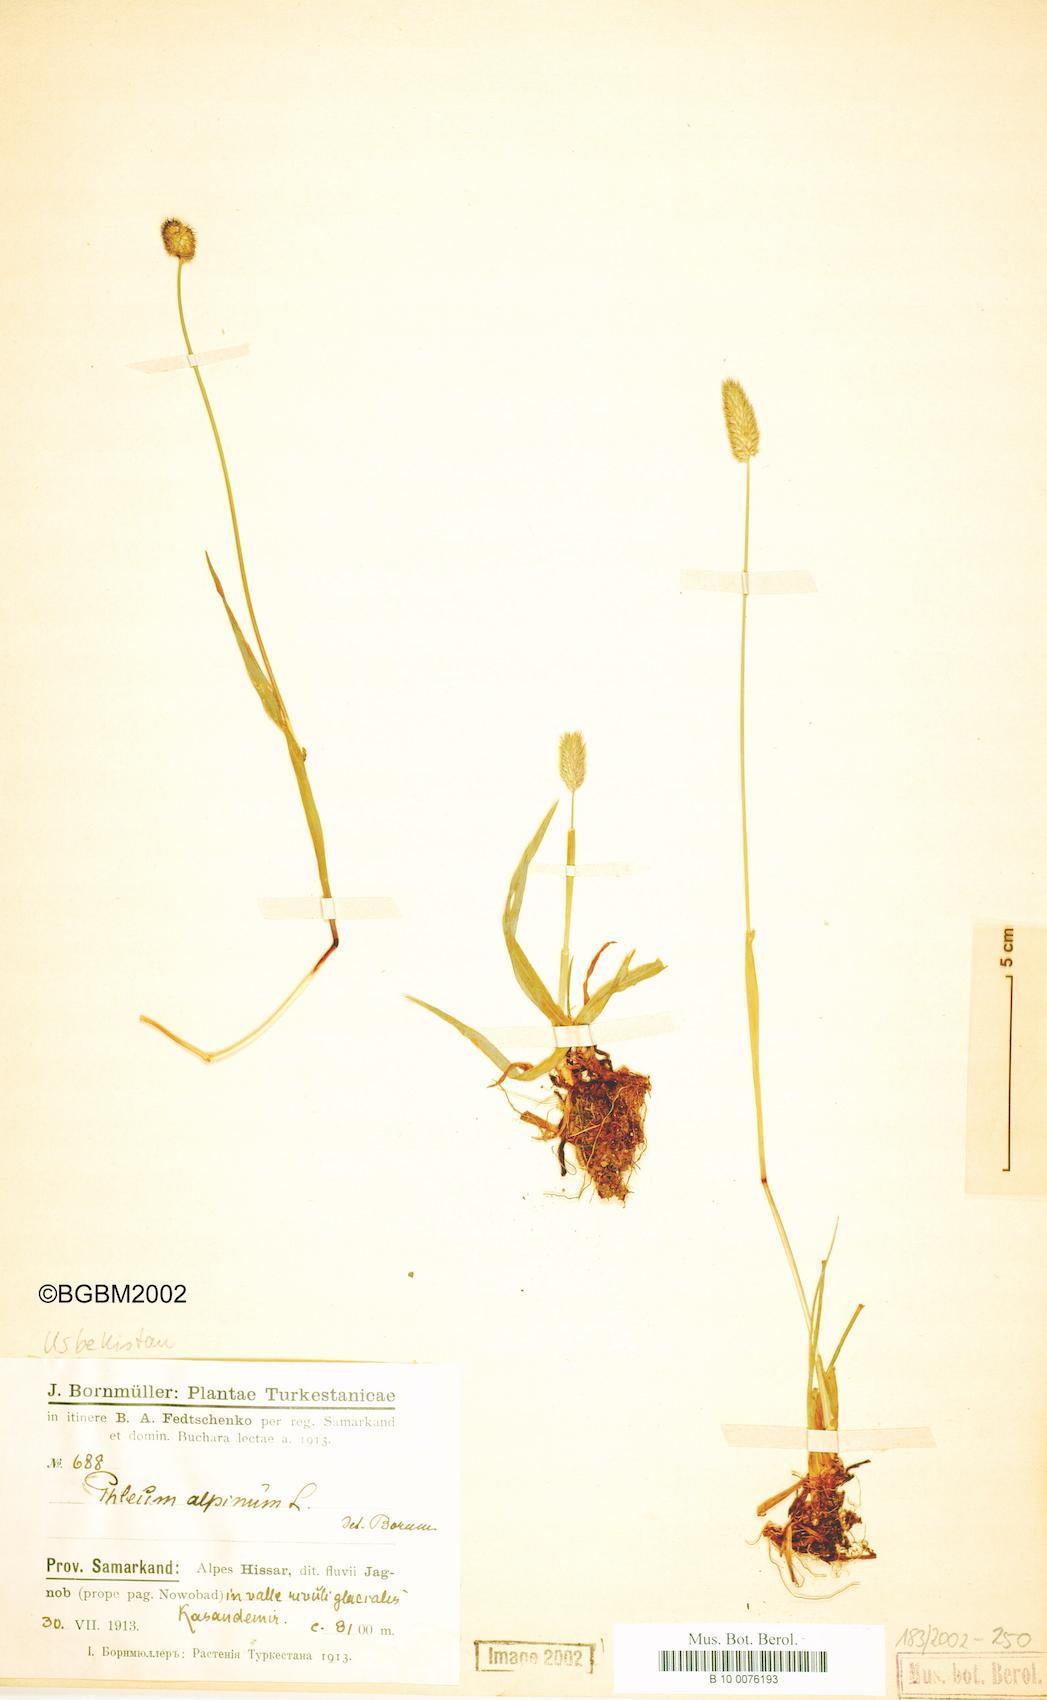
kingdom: Plantae
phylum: Tracheophyta
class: Liliopsida
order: Poales
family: Poaceae
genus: Phleum
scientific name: Phleum alpinum
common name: Alpine cat's-tail
